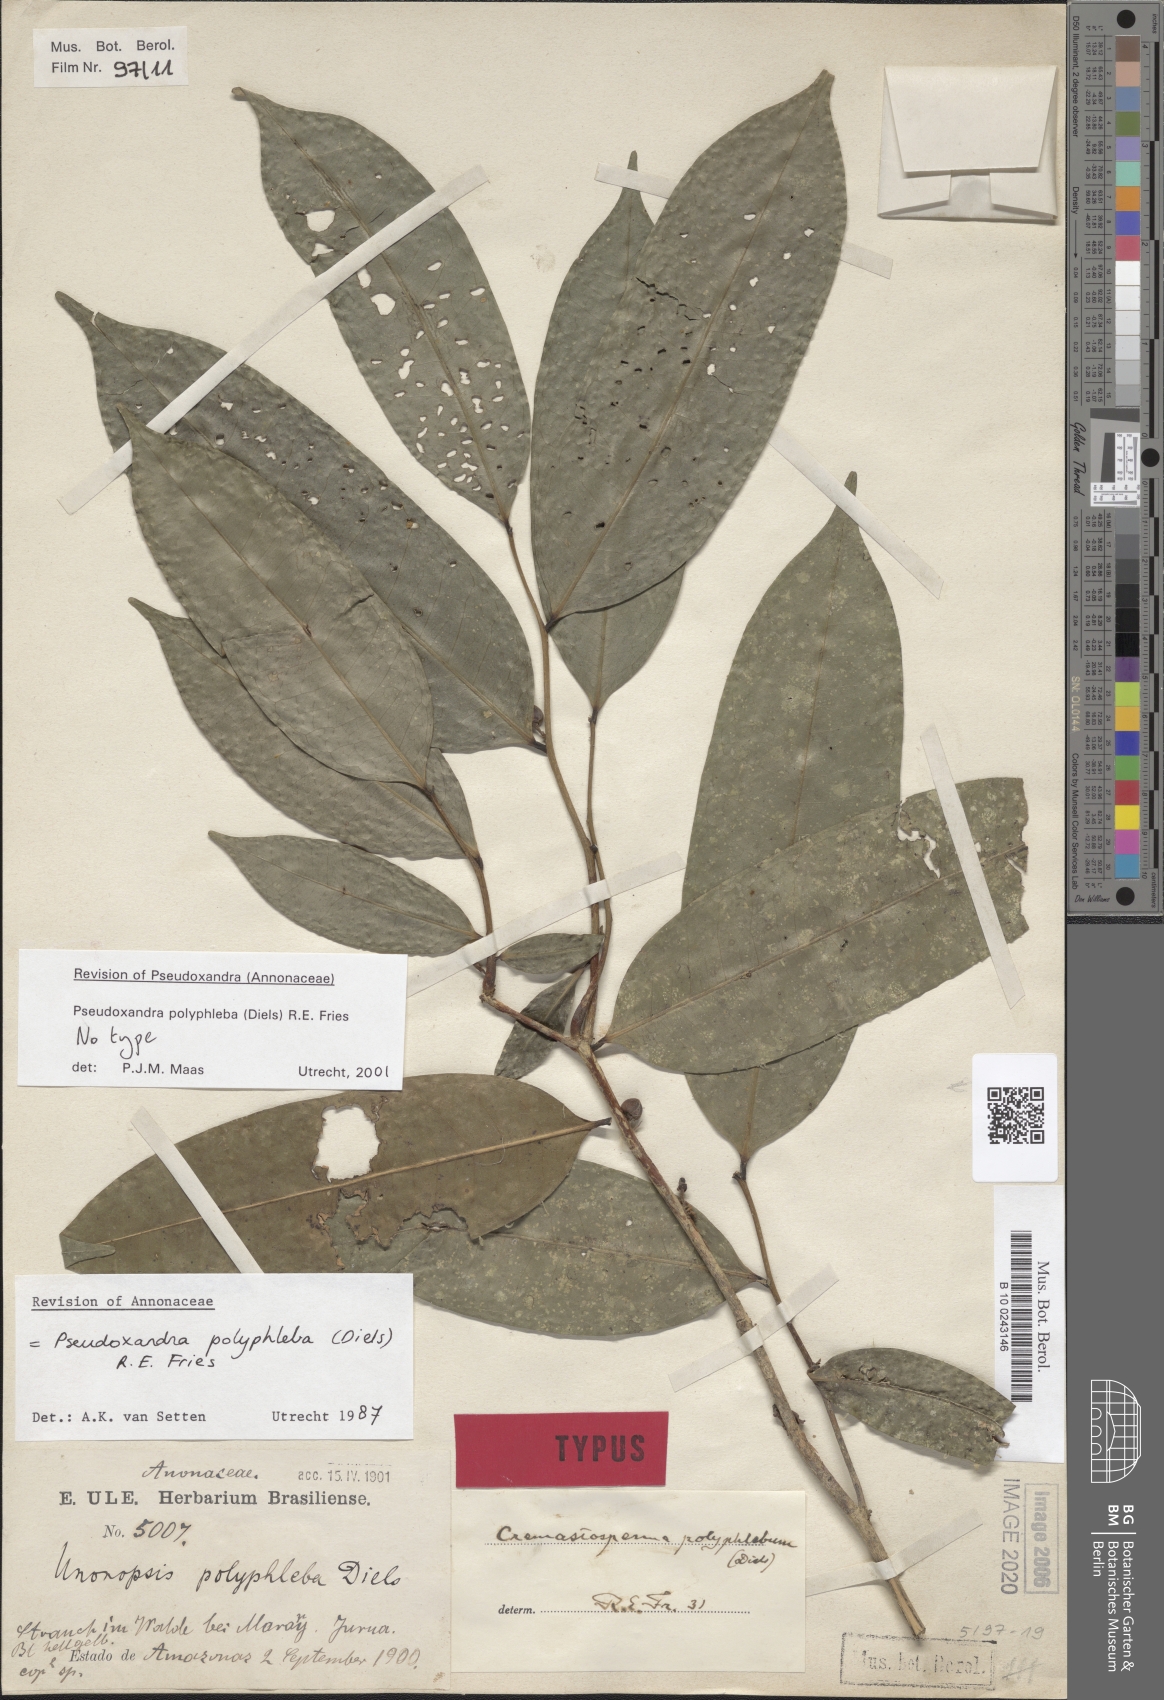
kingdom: Plantae
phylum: Tracheophyta
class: Magnoliopsida
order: Magnoliales
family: Annonaceae
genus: Pseudoxandra
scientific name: Pseudoxandra polyphleba
